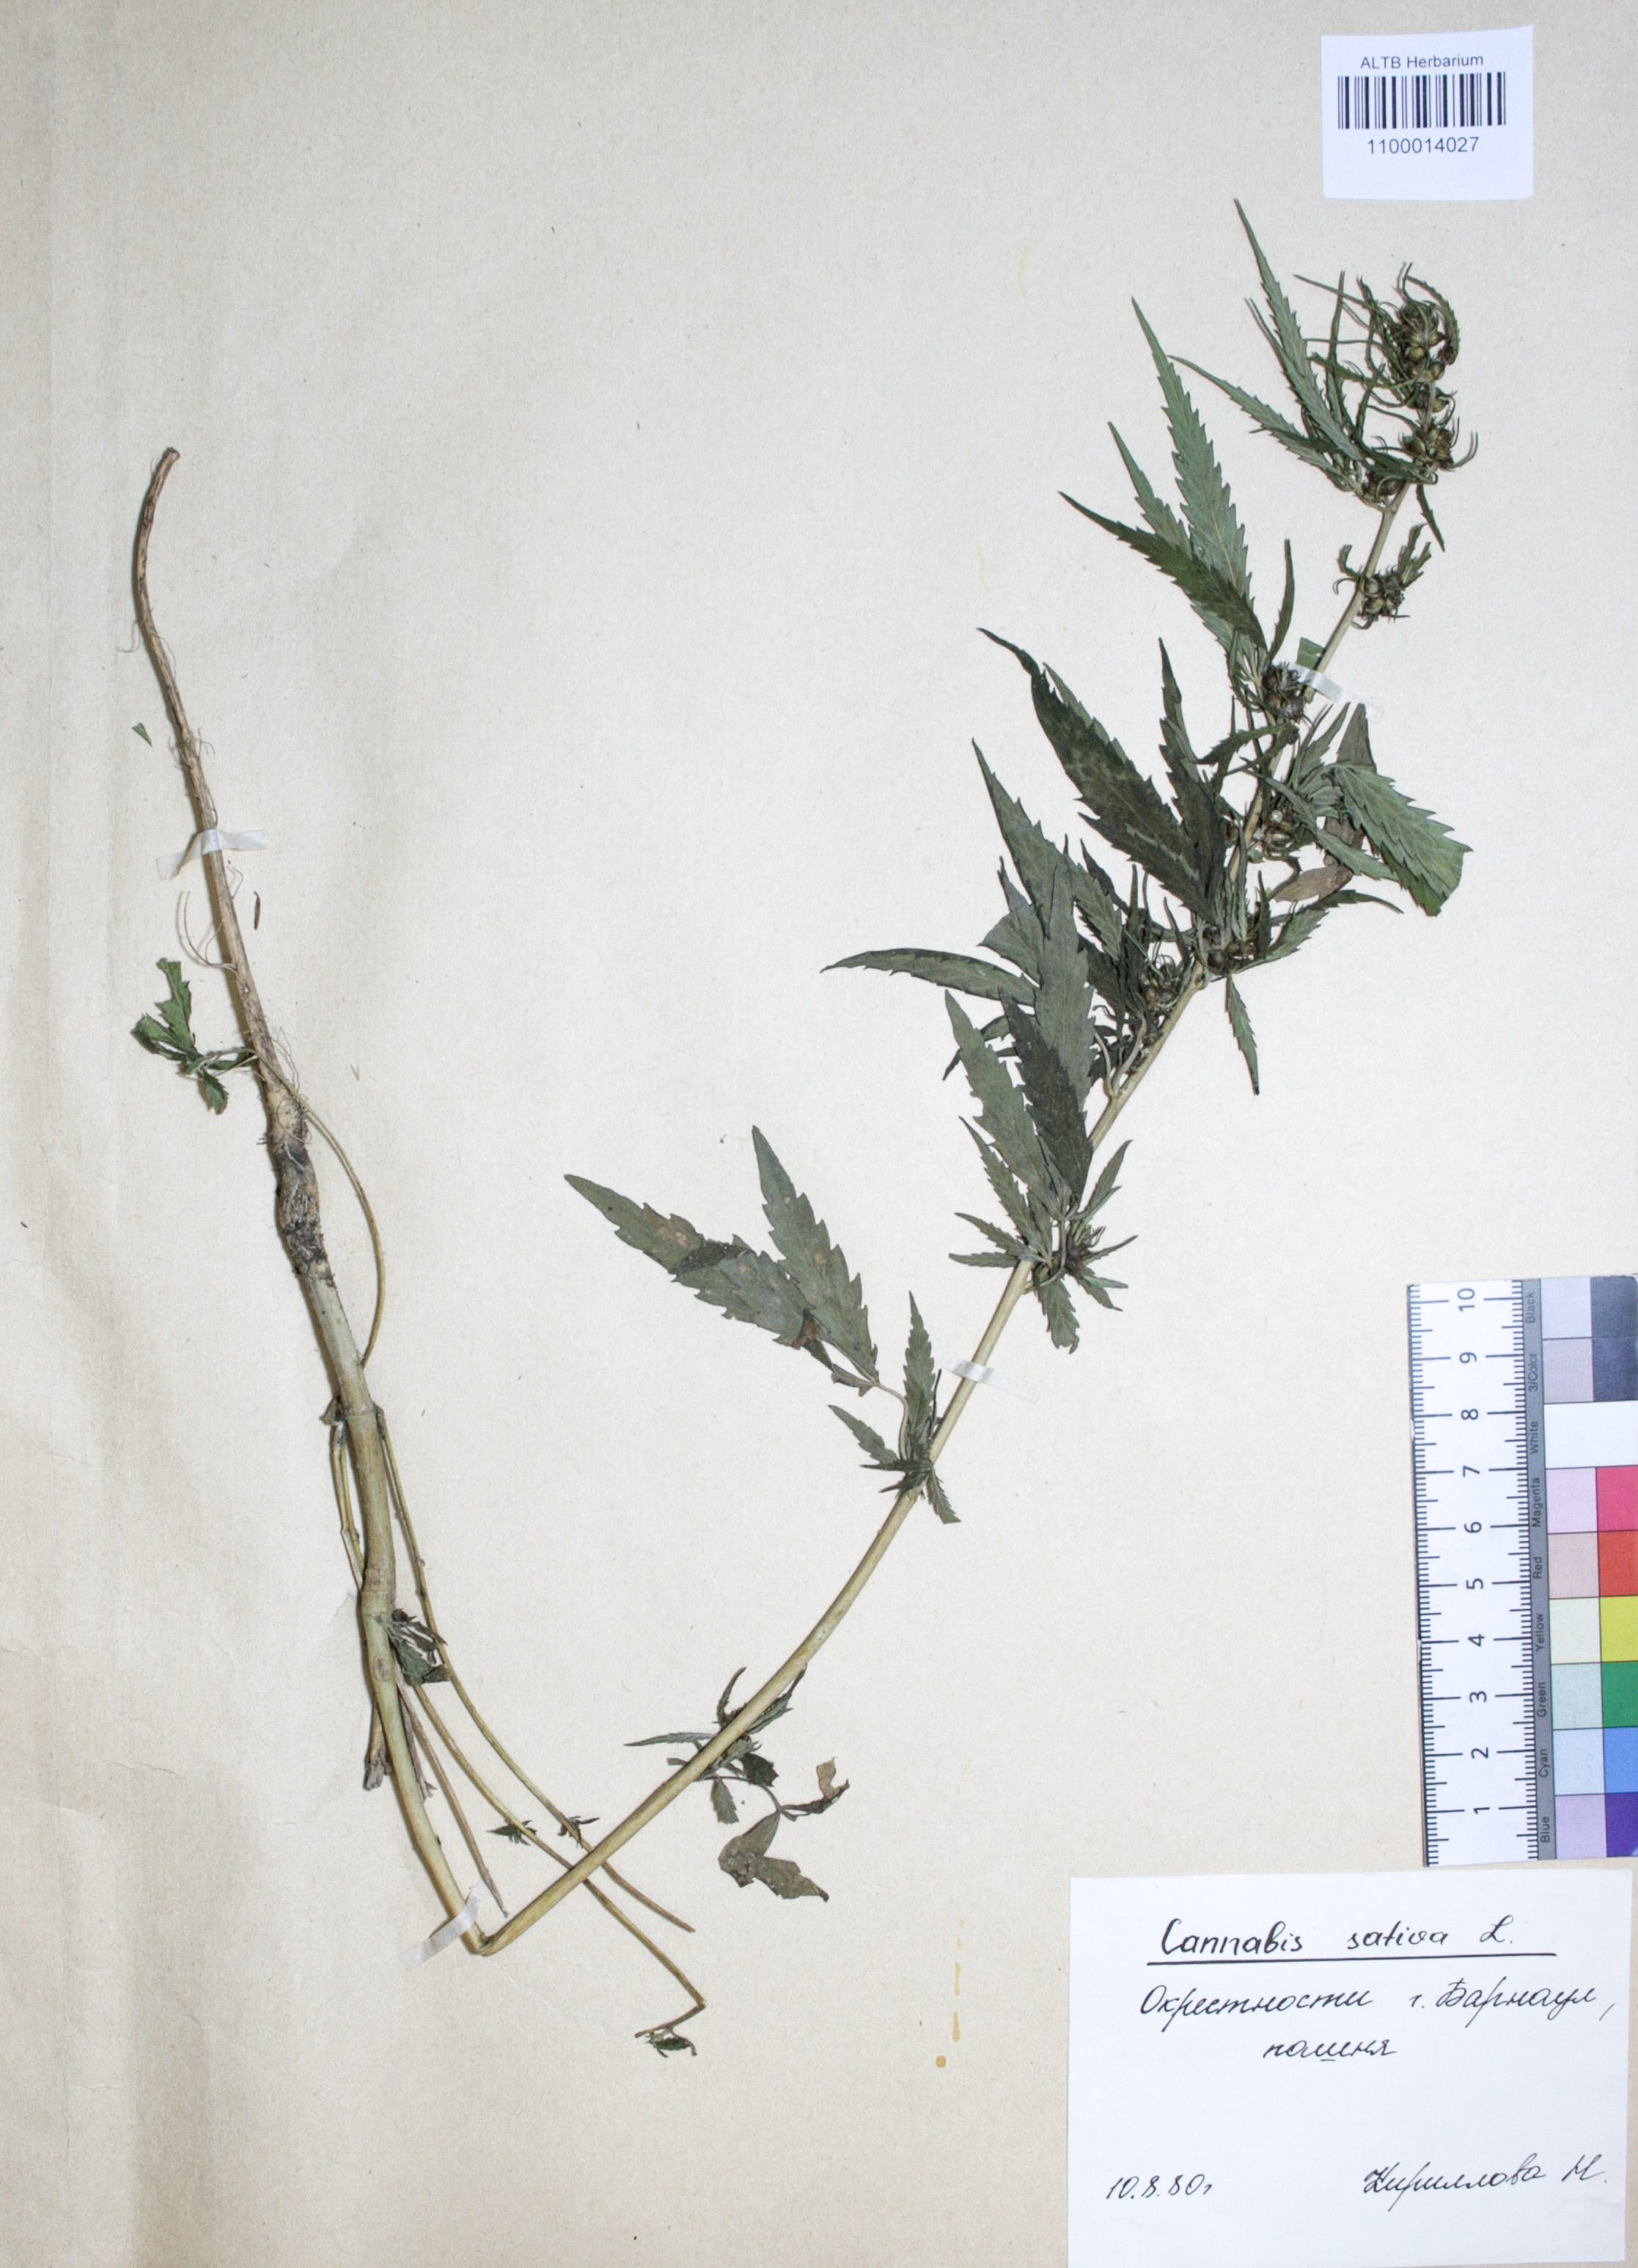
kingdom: Plantae
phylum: Tracheophyta
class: Magnoliopsida
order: Rosales
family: Cannabaceae
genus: Cannabis
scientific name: Cannabis sativa
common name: Hemp
